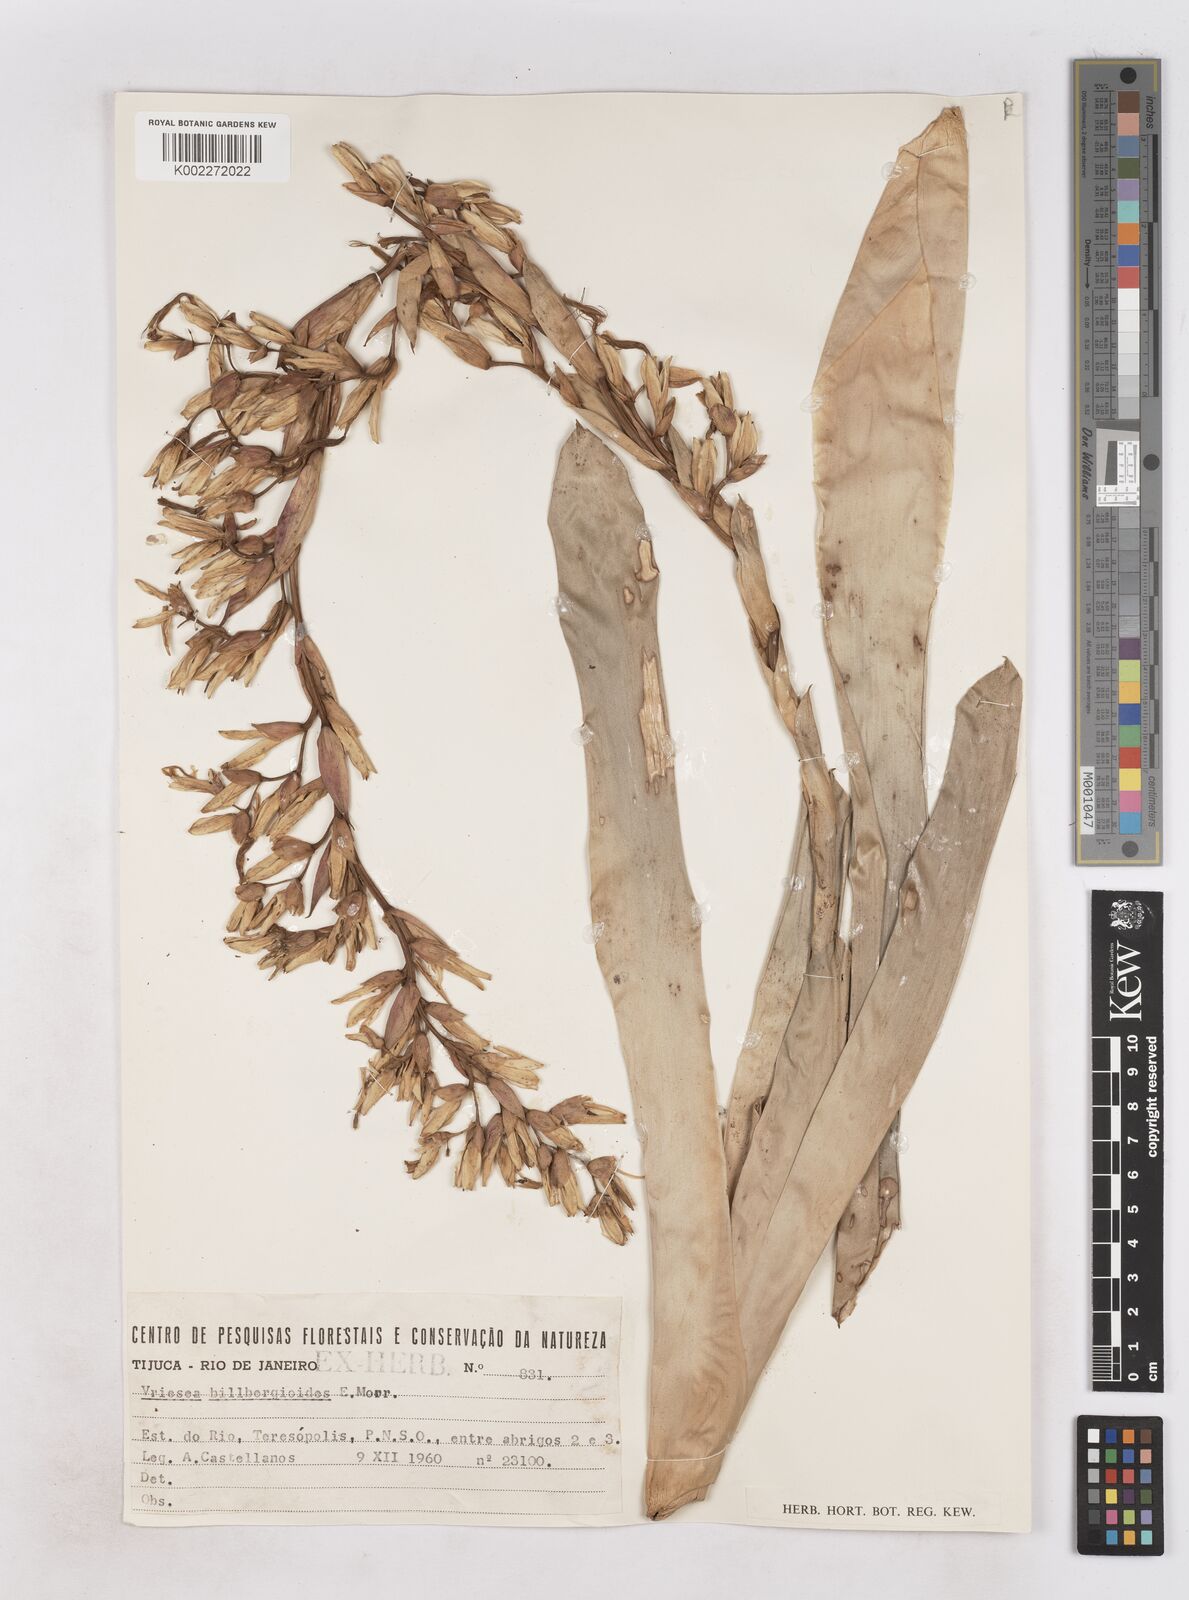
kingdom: Plantae
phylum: Tracheophyta
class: Liliopsida
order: Poales
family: Bromeliaceae
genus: Vriesea
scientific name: Vriesea billbergioides
